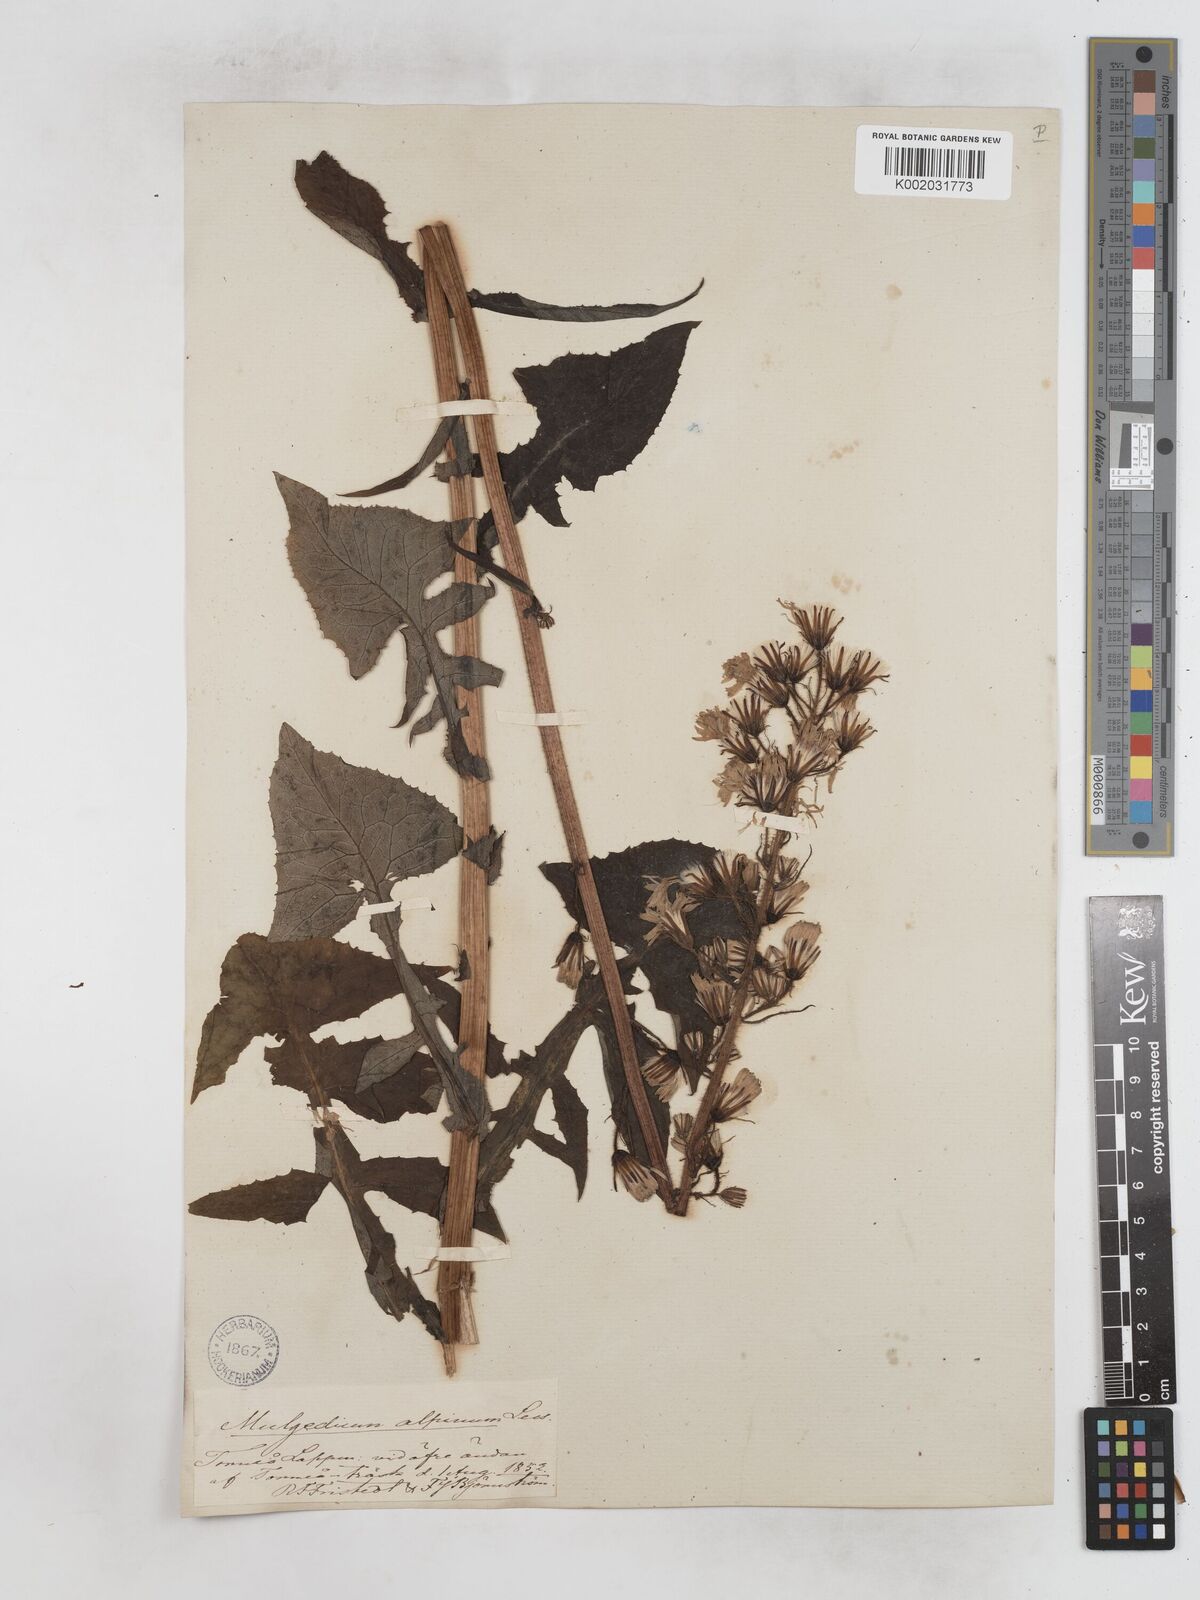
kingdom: Plantae
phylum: Tracheophyta
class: Magnoliopsida
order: Asterales
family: Asteraceae
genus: Cicerbita
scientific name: Cicerbita alpina
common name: Alpine blue-sow-thistle
